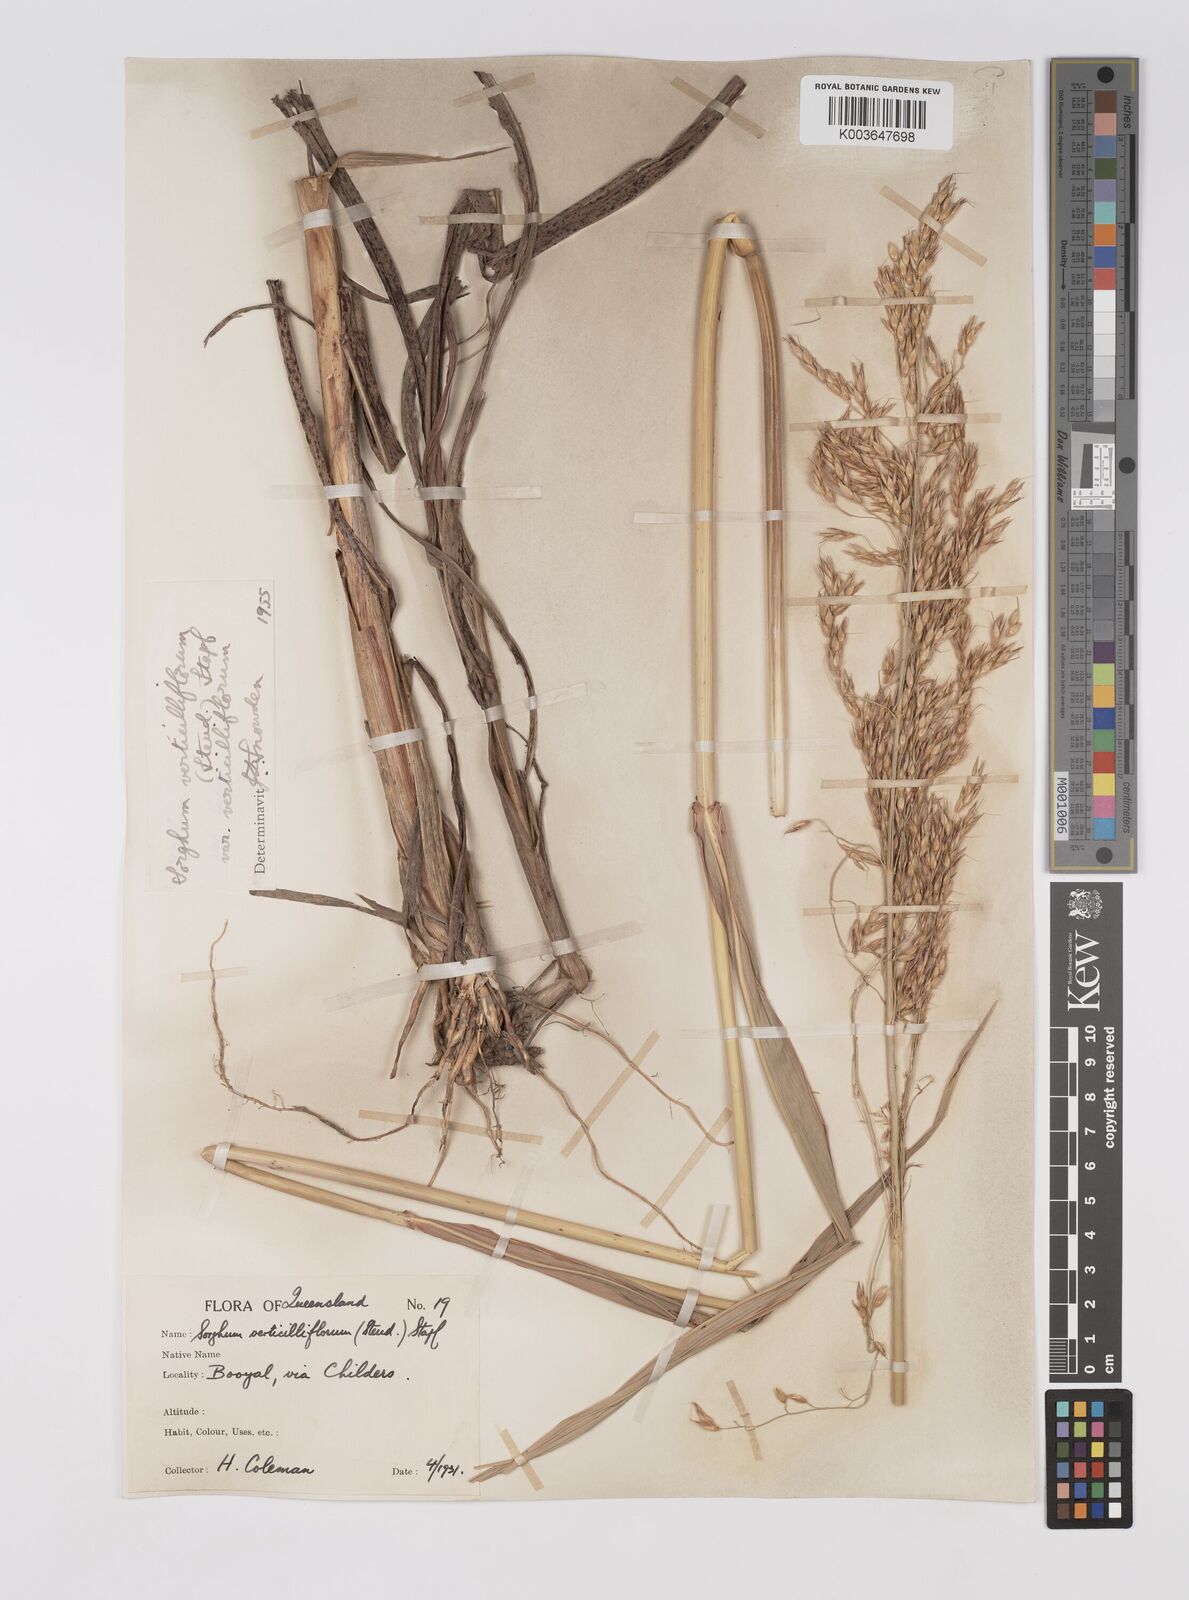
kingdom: Plantae
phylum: Tracheophyta
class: Liliopsida
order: Poales
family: Poaceae
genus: Sorghum
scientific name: Sorghum arundinaceum
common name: Sorghum
